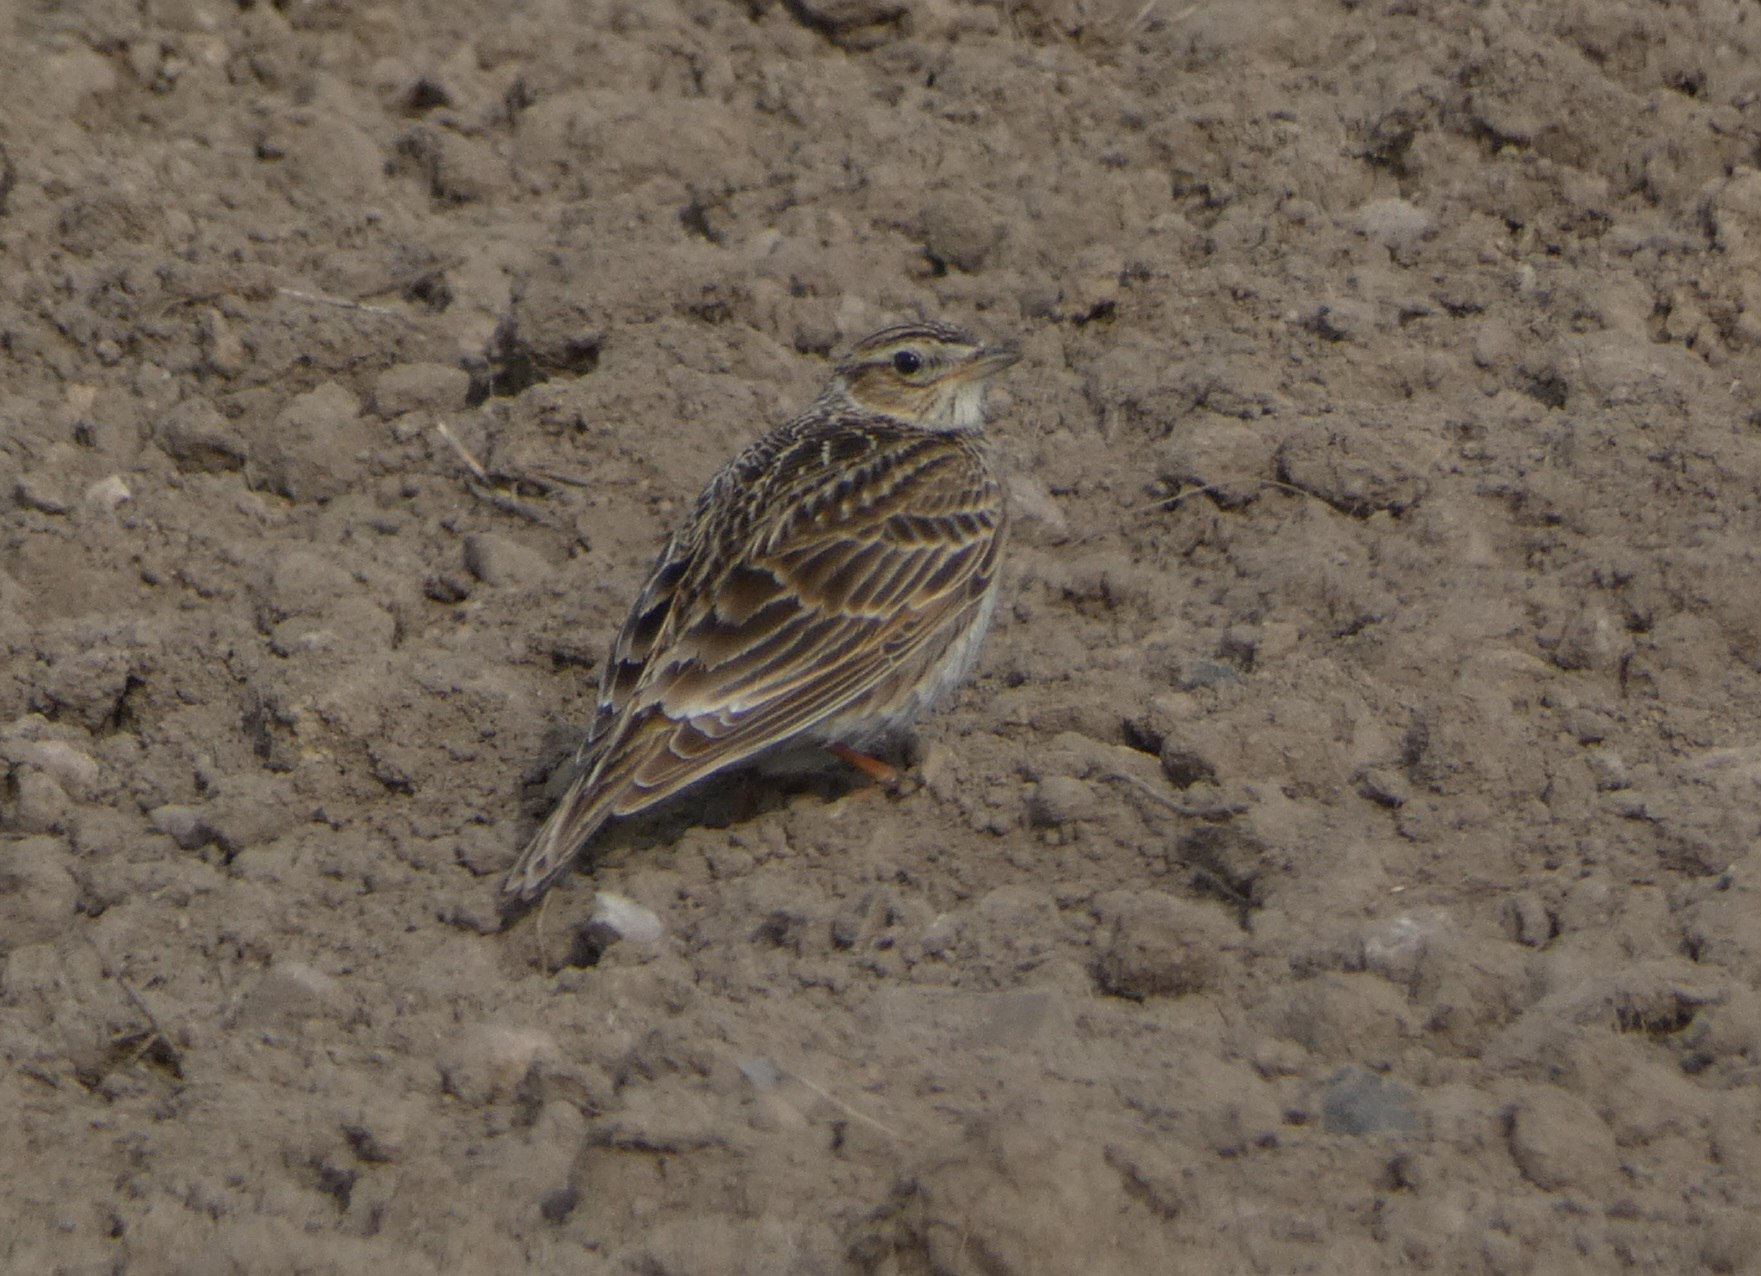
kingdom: Animalia
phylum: Chordata
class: Aves
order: Passeriformes
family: Alaudidae
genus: Alauda
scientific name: Alauda arvensis
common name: Sanglærke
